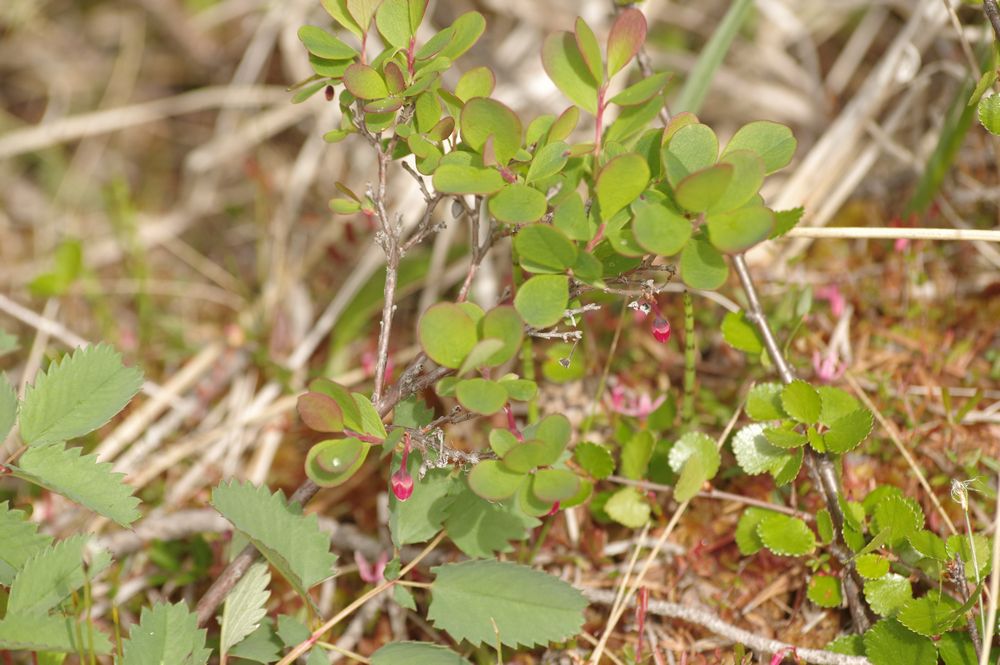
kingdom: Plantae
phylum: Tracheophyta
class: Magnoliopsida
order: Ericales
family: Ericaceae
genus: Vaccinium
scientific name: Vaccinium uliginosum
